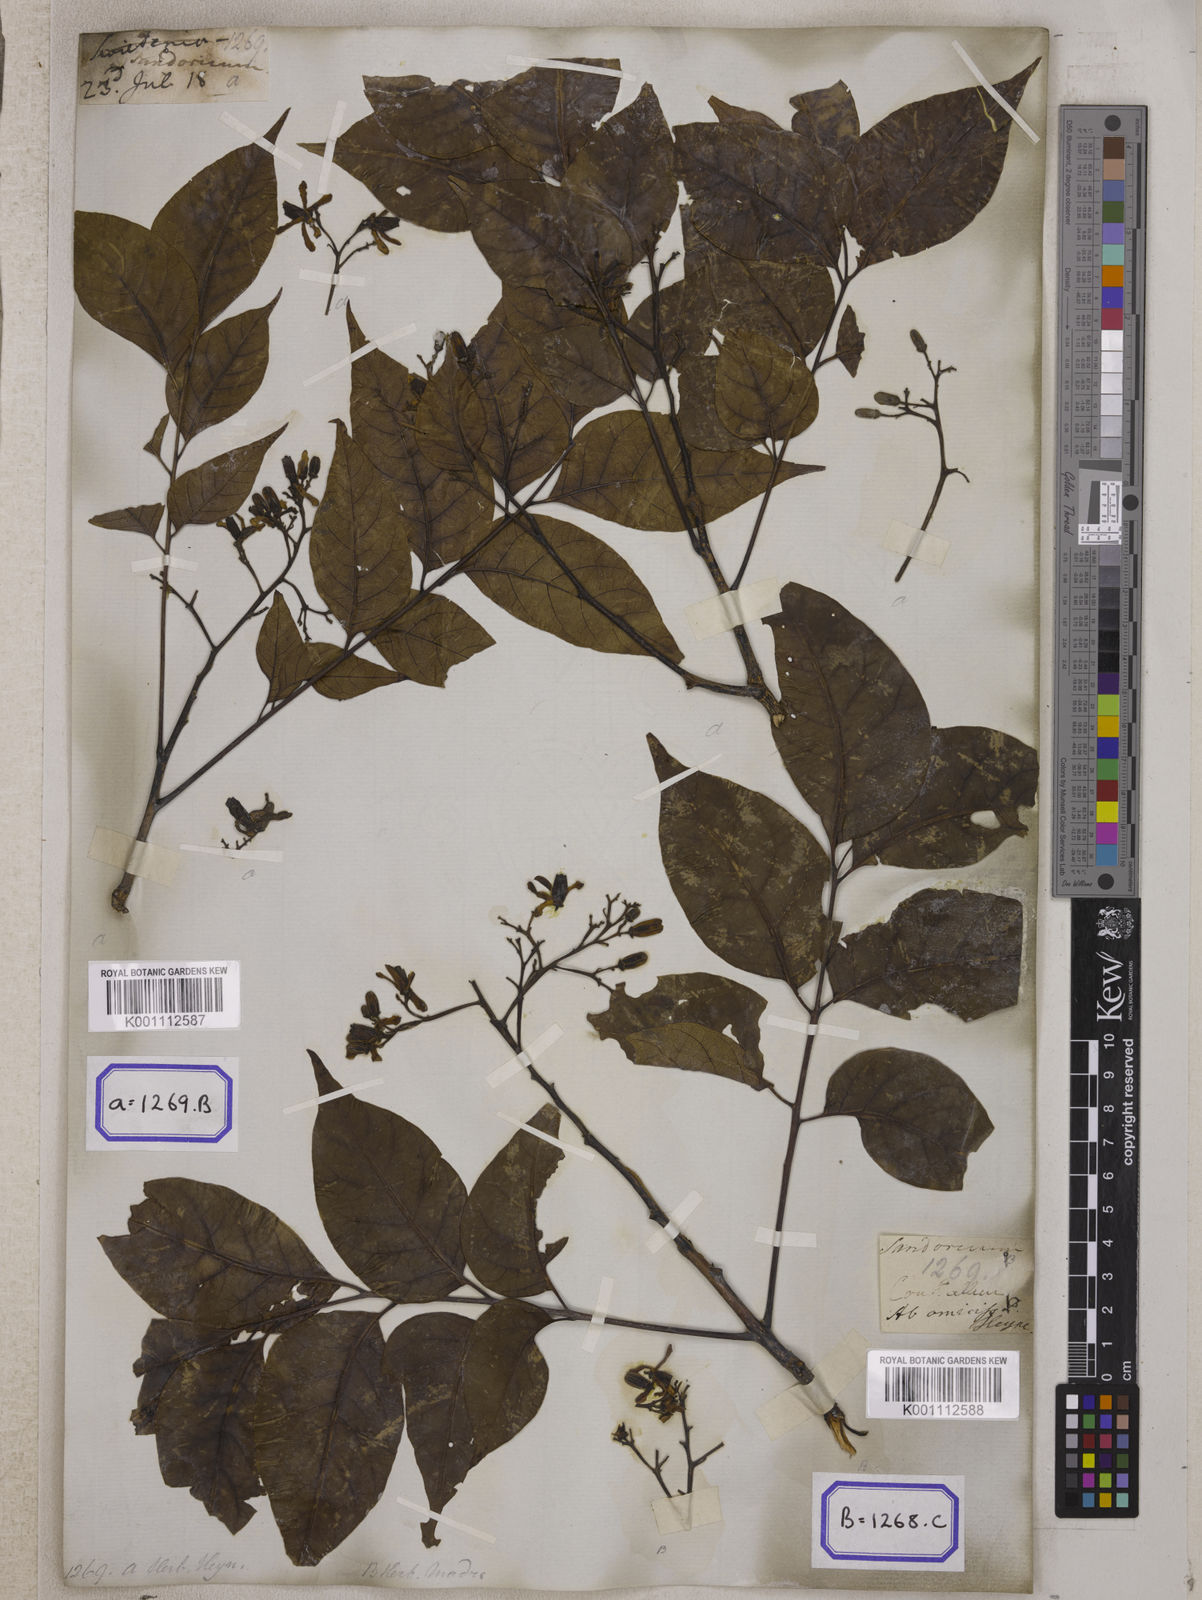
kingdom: Plantae
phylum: Tracheophyta
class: Magnoliopsida
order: Sapindales
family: Meliaceae
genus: Chukrasia
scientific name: Chukrasia tabularis
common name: Chittagong wood
